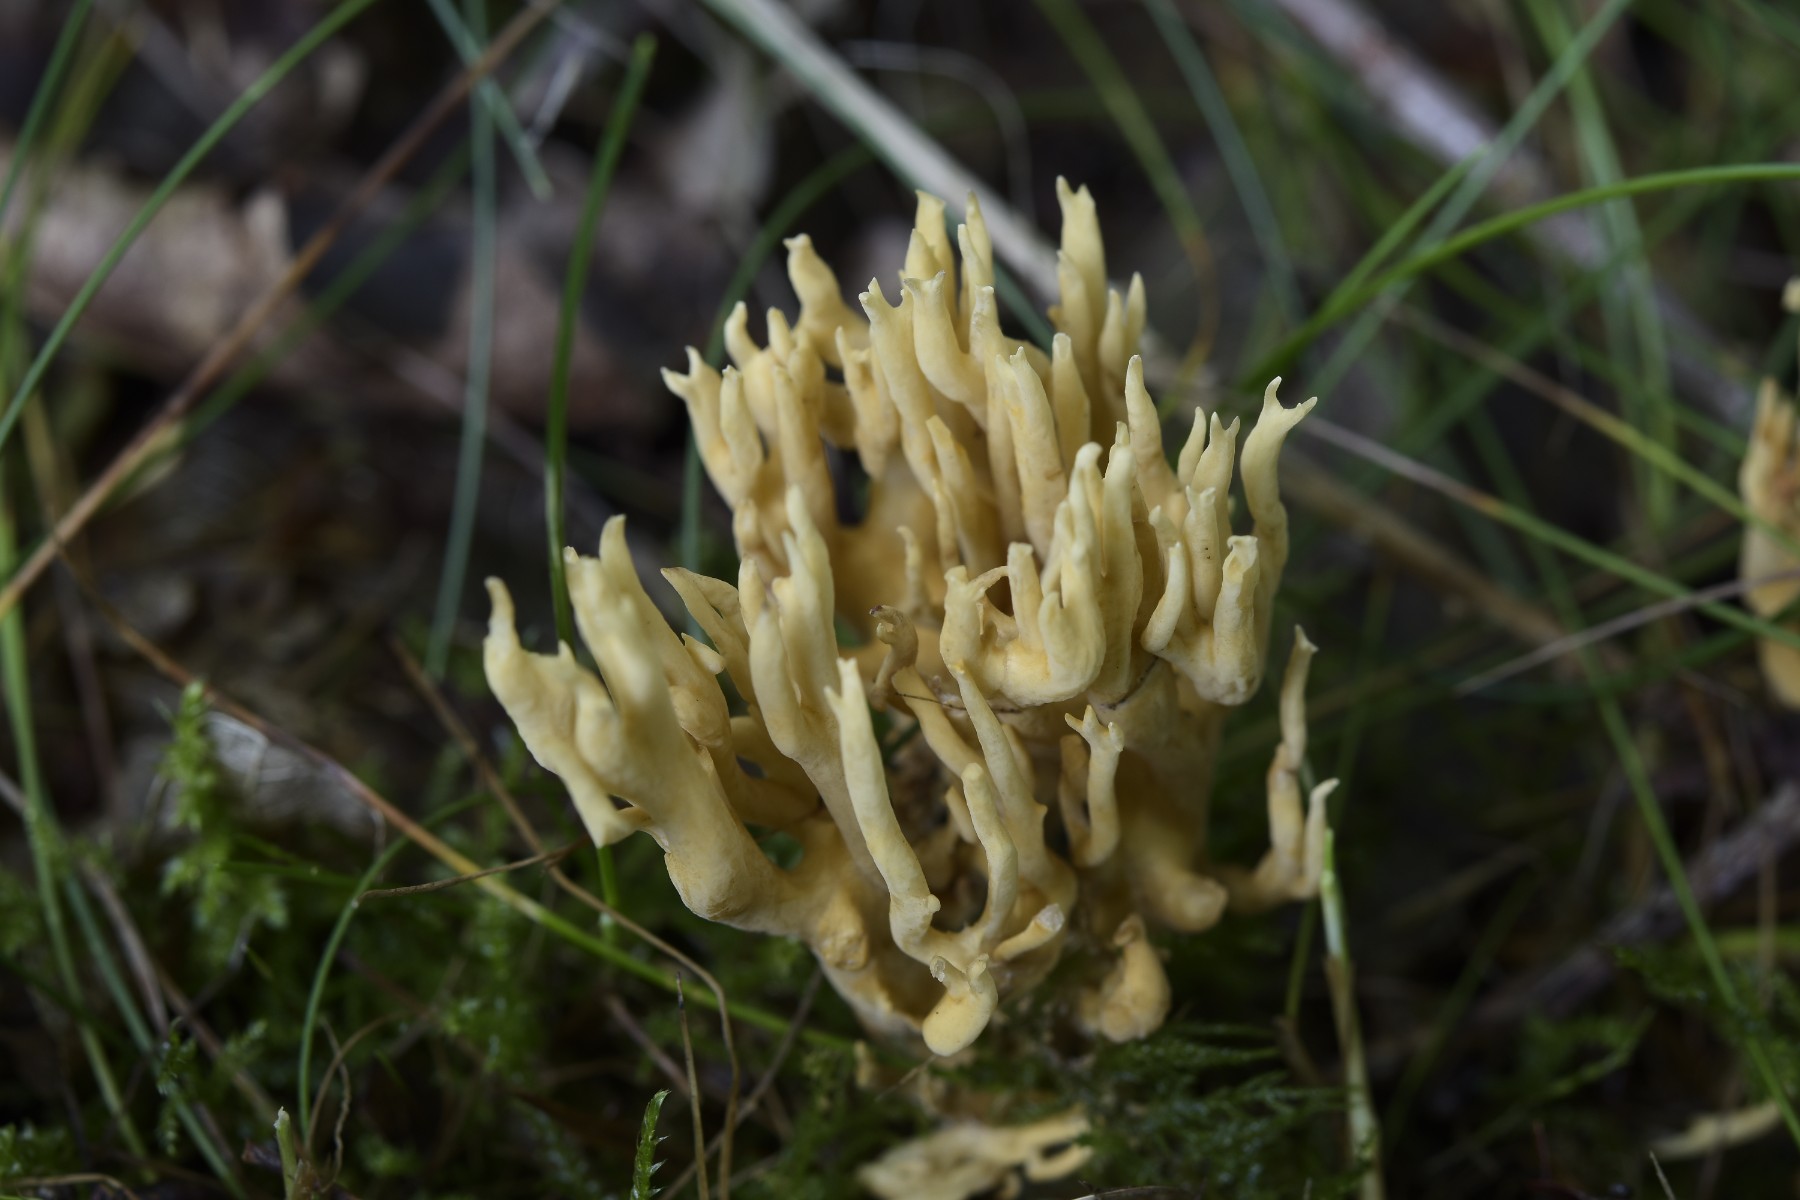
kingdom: Fungi
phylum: Basidiomycota
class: Agaricomycetes
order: Gomphales
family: Gomphaceae
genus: Ramaria
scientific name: Ramaria stricta
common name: rank koralsvamp
